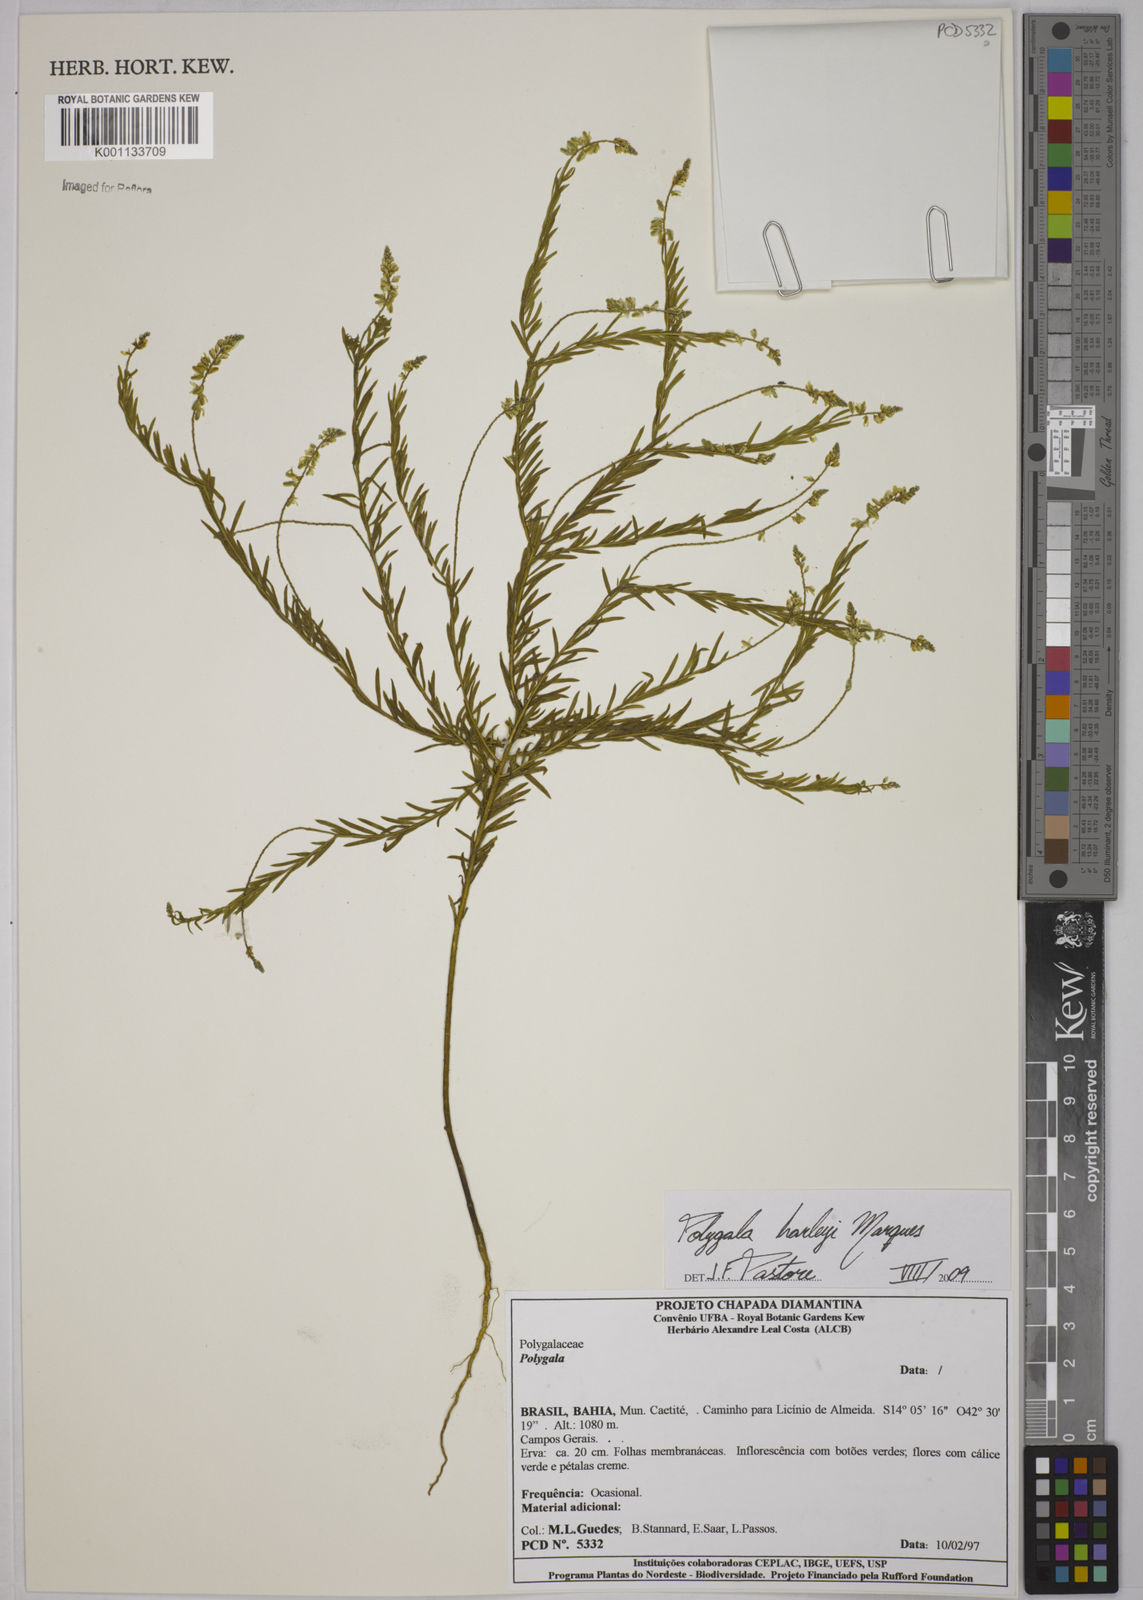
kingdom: Plantae
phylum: Tracheophyta
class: Magnoliopsida
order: Fabales
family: Polygalaceae
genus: Polygala
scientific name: Polygala harleyi
